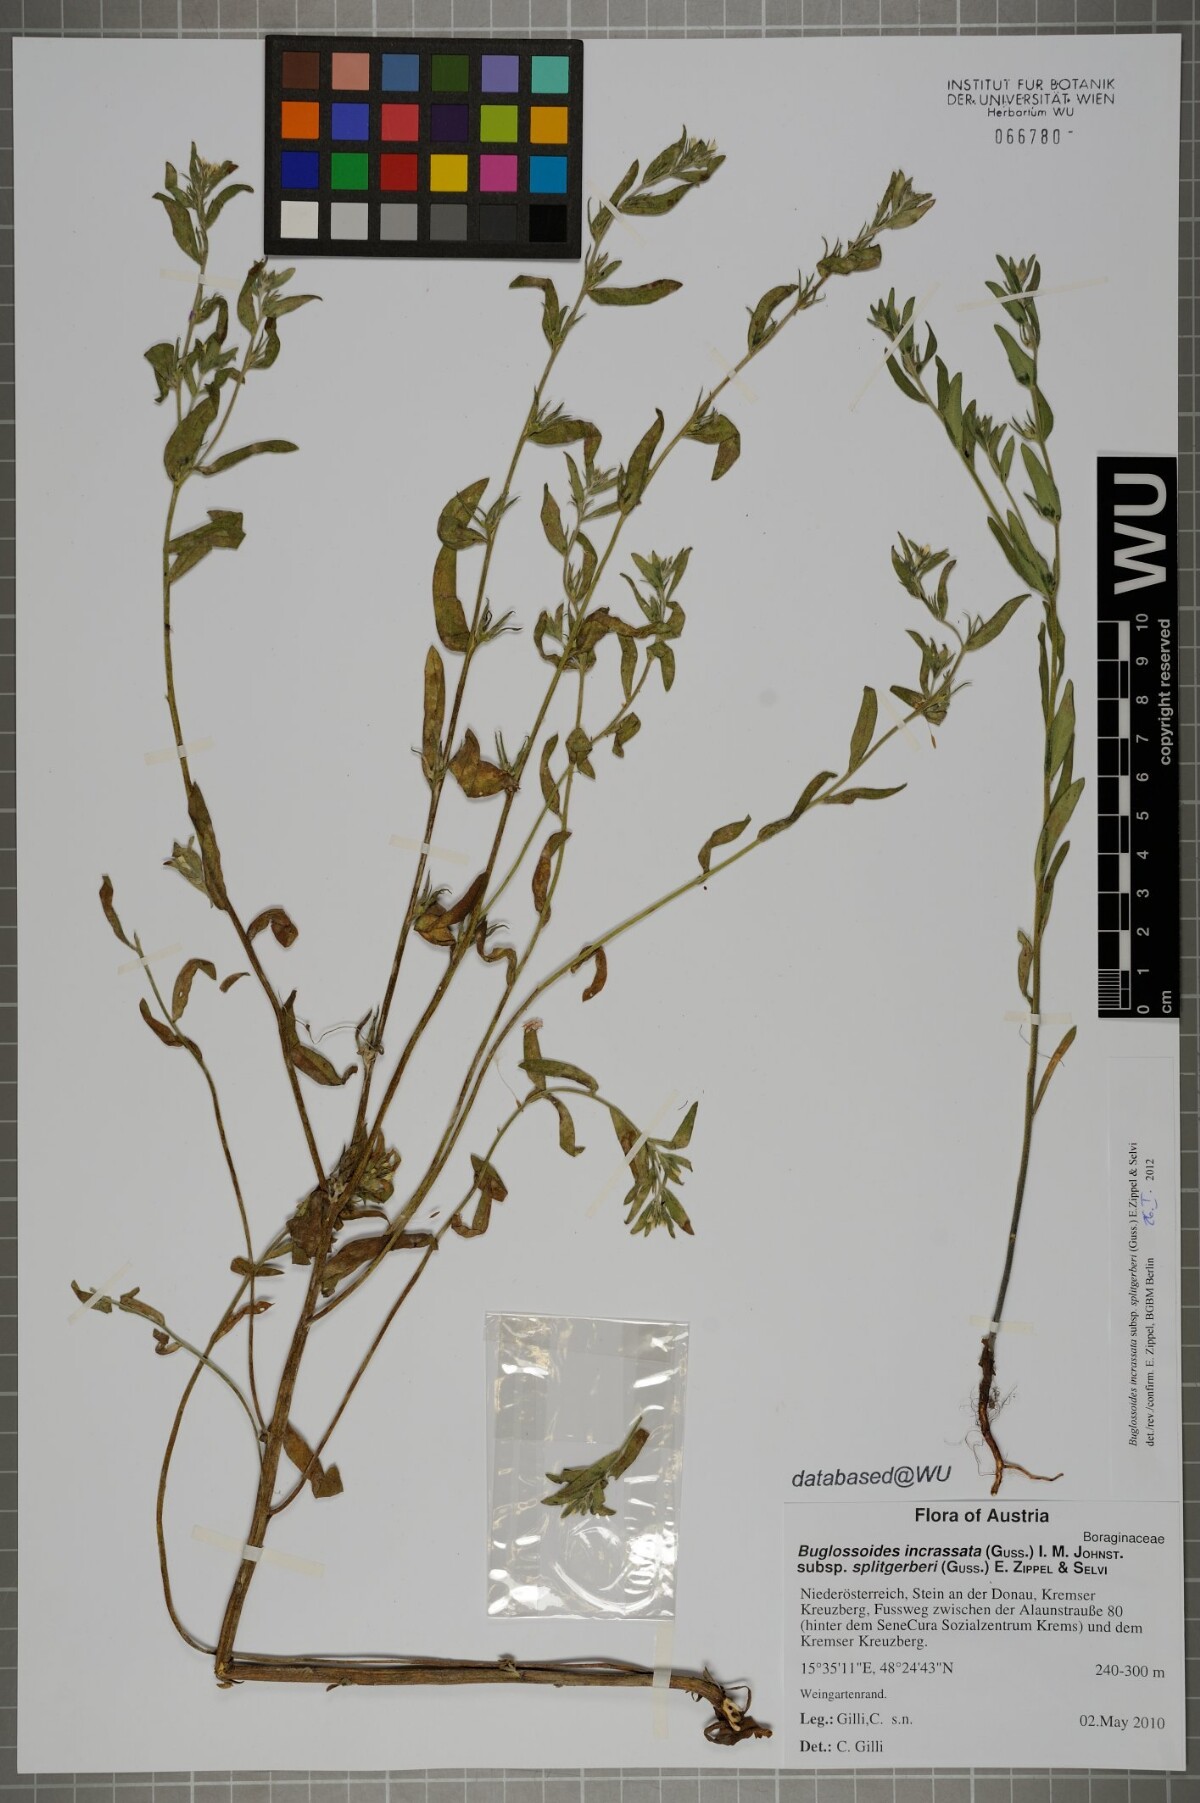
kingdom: Plantae
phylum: Tracheophyta
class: Magnoliopsida
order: Boraginales
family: Boraginaceae
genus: Buglossoides
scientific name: Buglossoides incrassata
